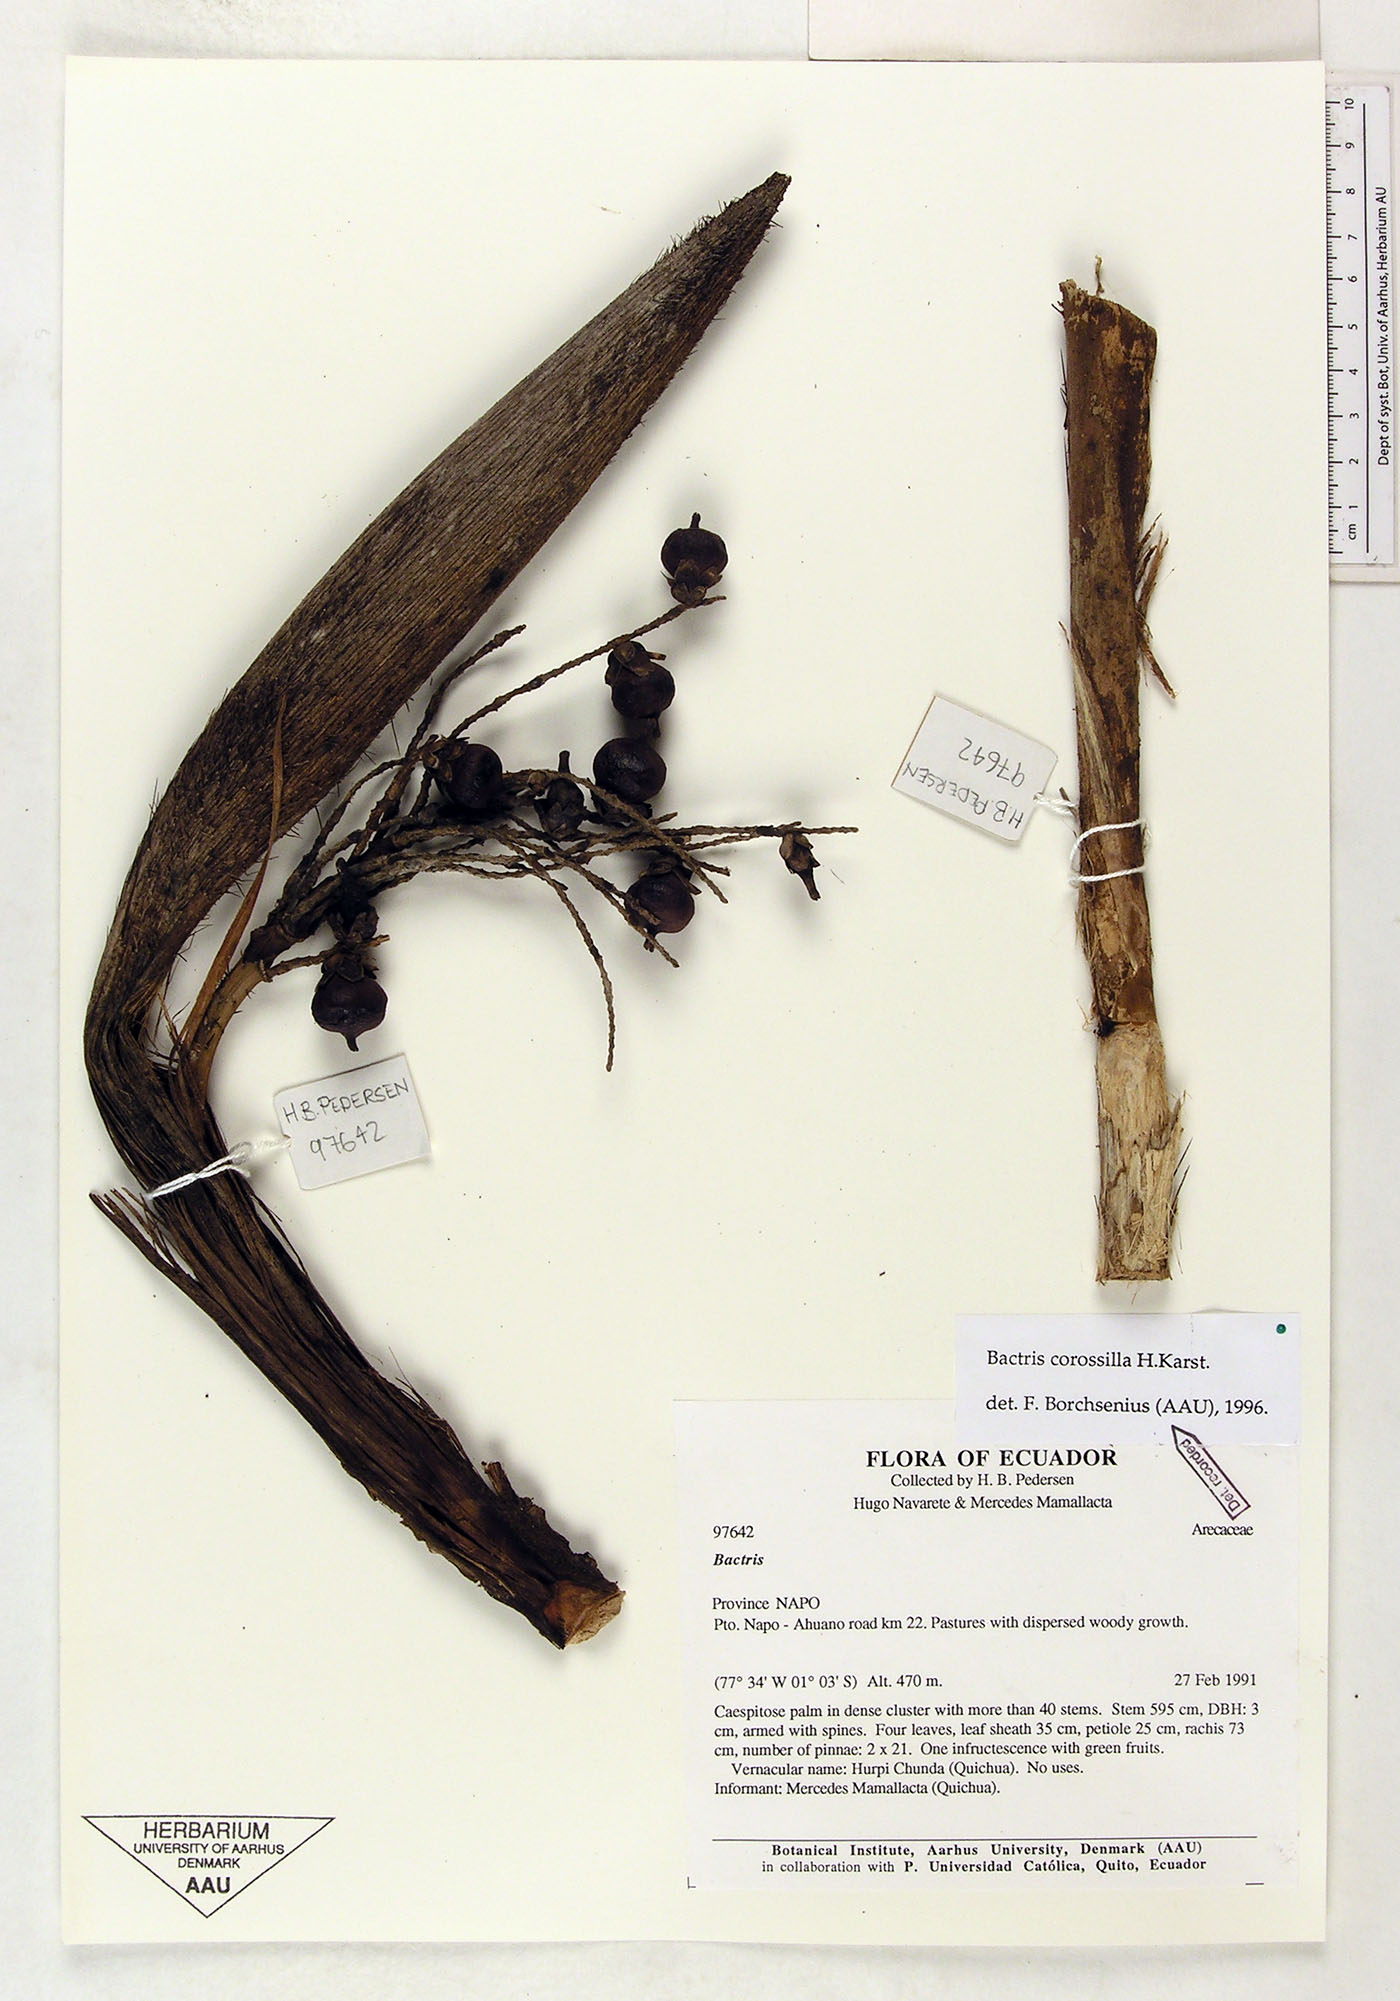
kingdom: Plantae
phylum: Tracheophyta
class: Liliopsida
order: Arecales
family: Arecaceae
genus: Bactris
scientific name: Bactris corossilla
